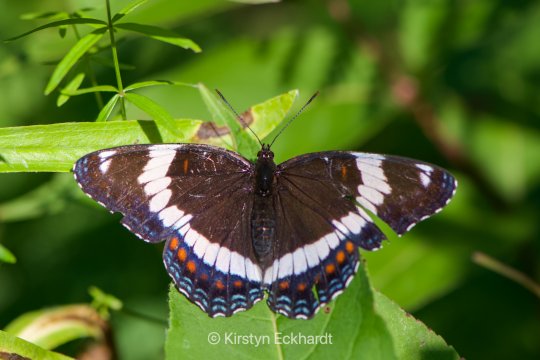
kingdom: Animalia
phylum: Arthropoda
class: Insecta
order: Lepidoptera
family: Nymphalidae
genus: Limenitis
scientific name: Limenitis arthemis
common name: Red-spotted Admiral
